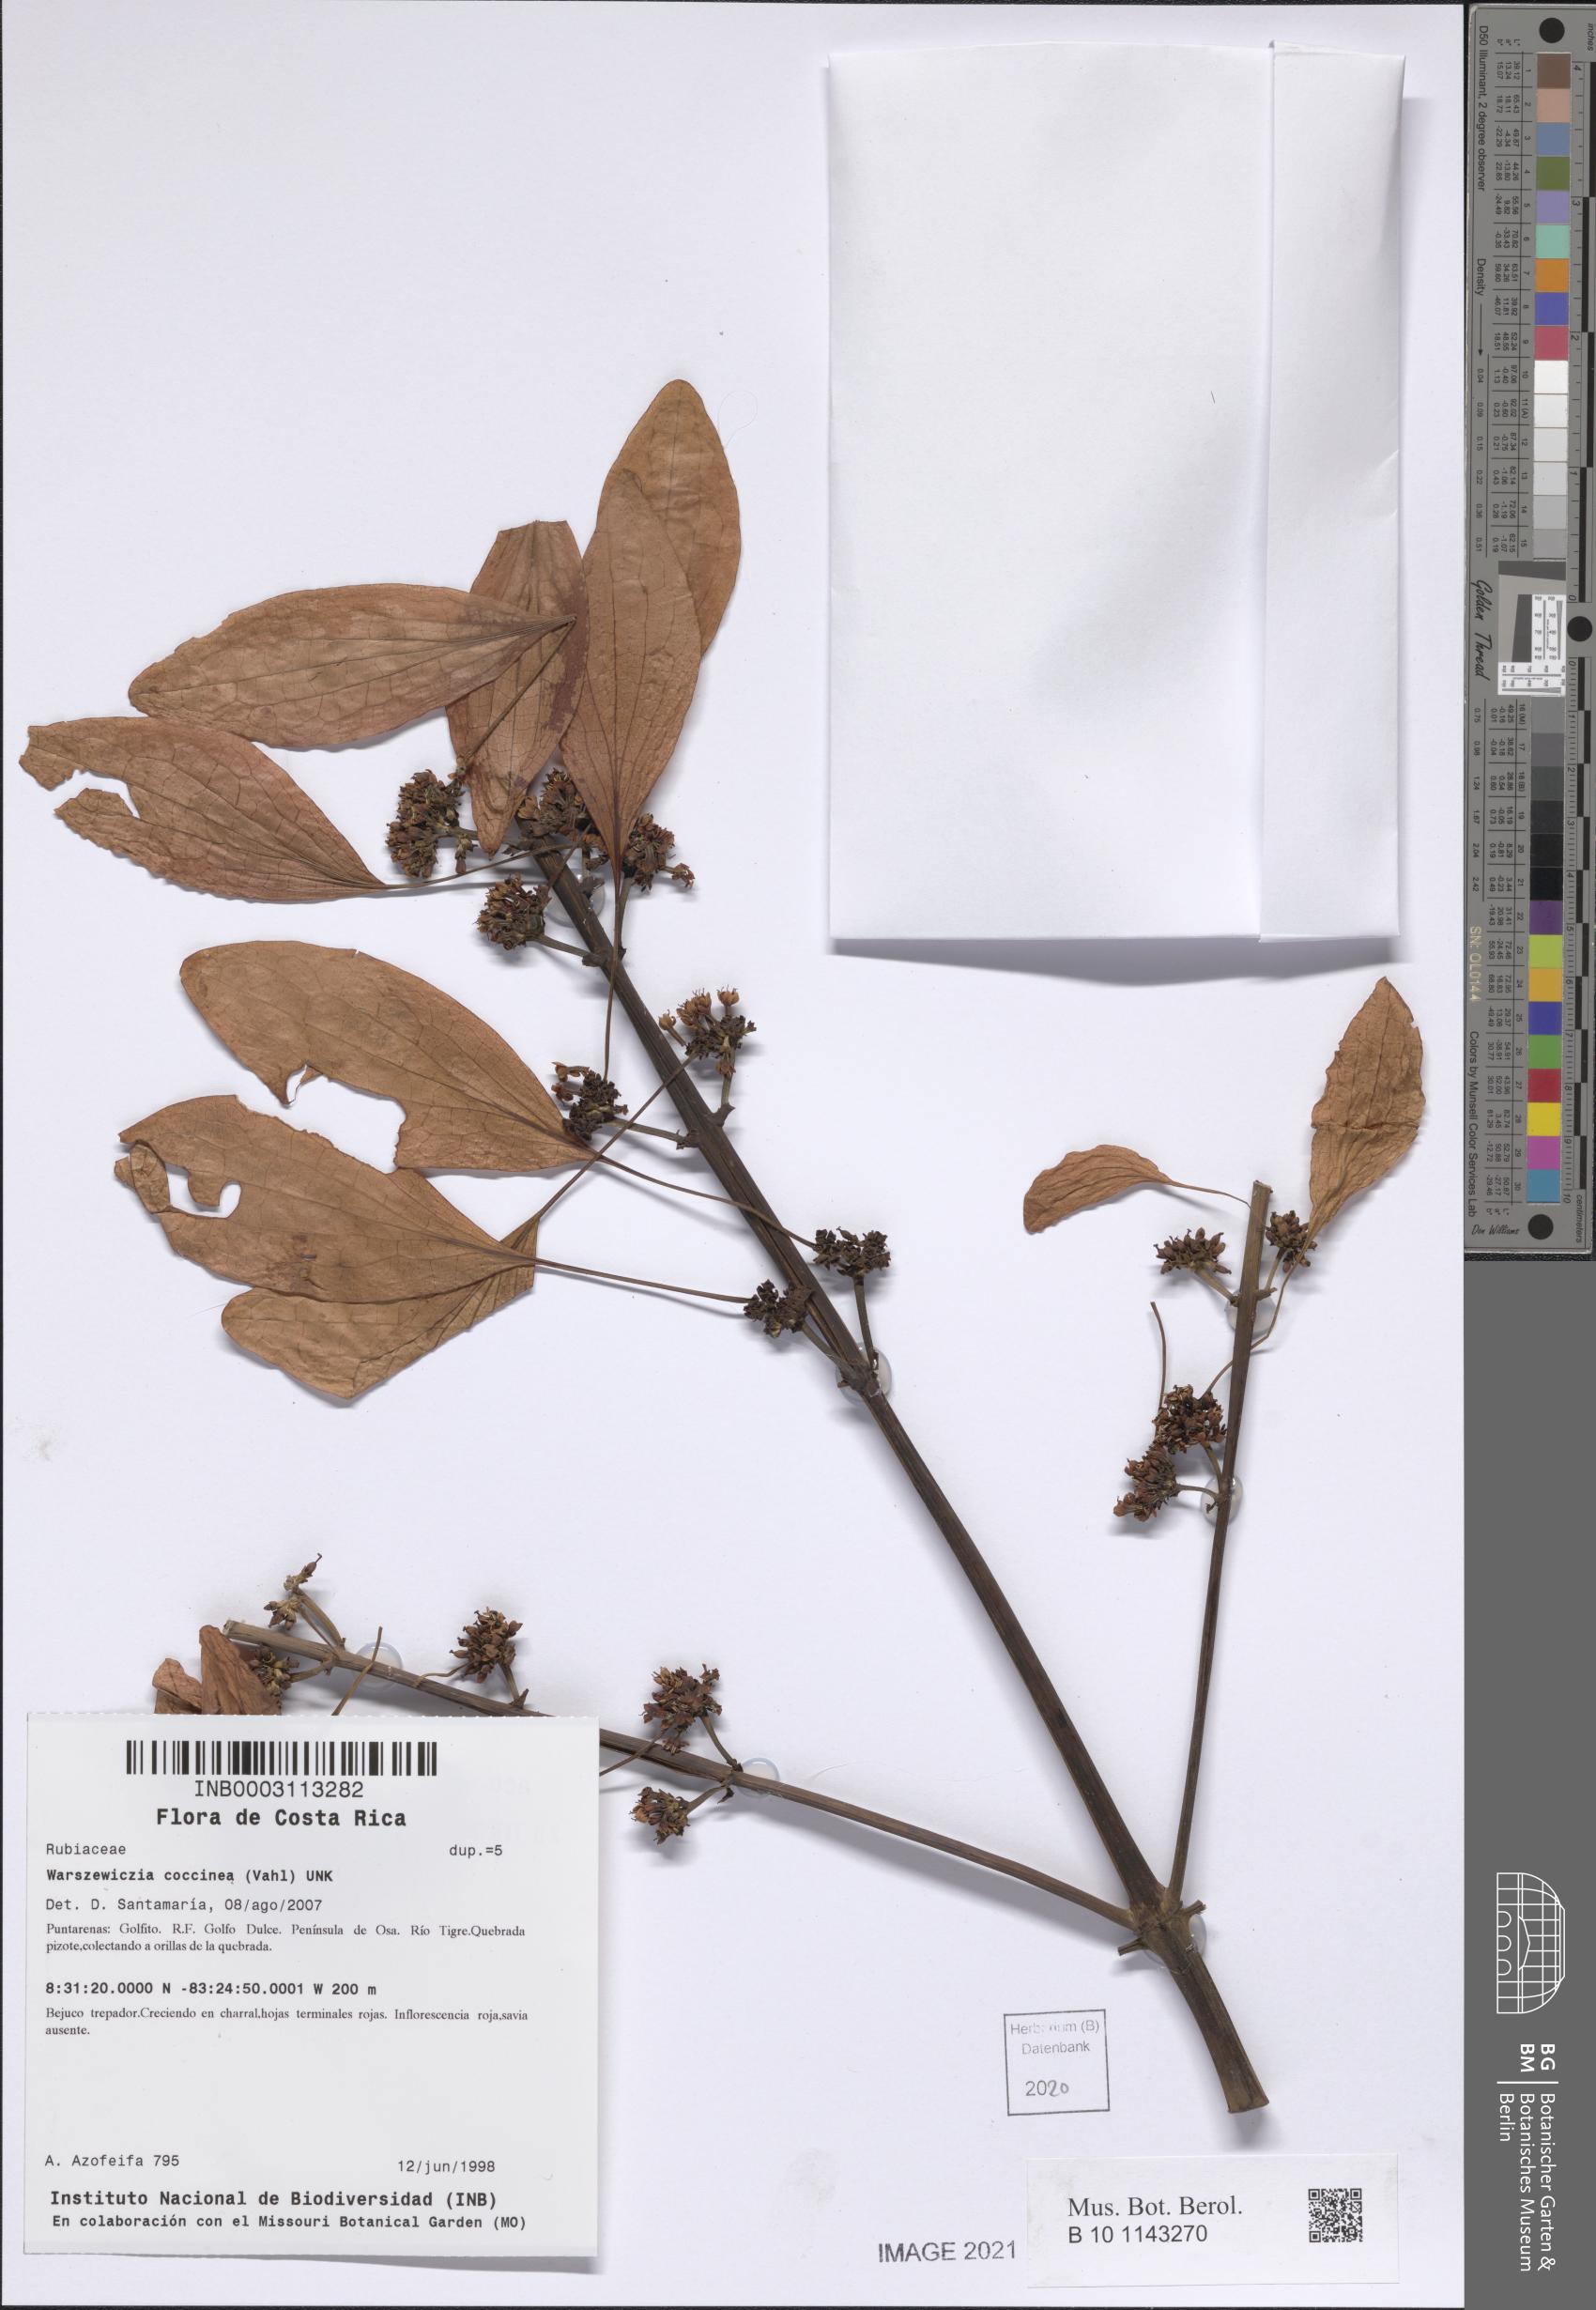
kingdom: Plantae
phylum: Tracheophyta
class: Magnoliopsida
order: Gentianales
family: Rubiaceae
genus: Warszewiczia
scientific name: Warszewiczia coccinea
